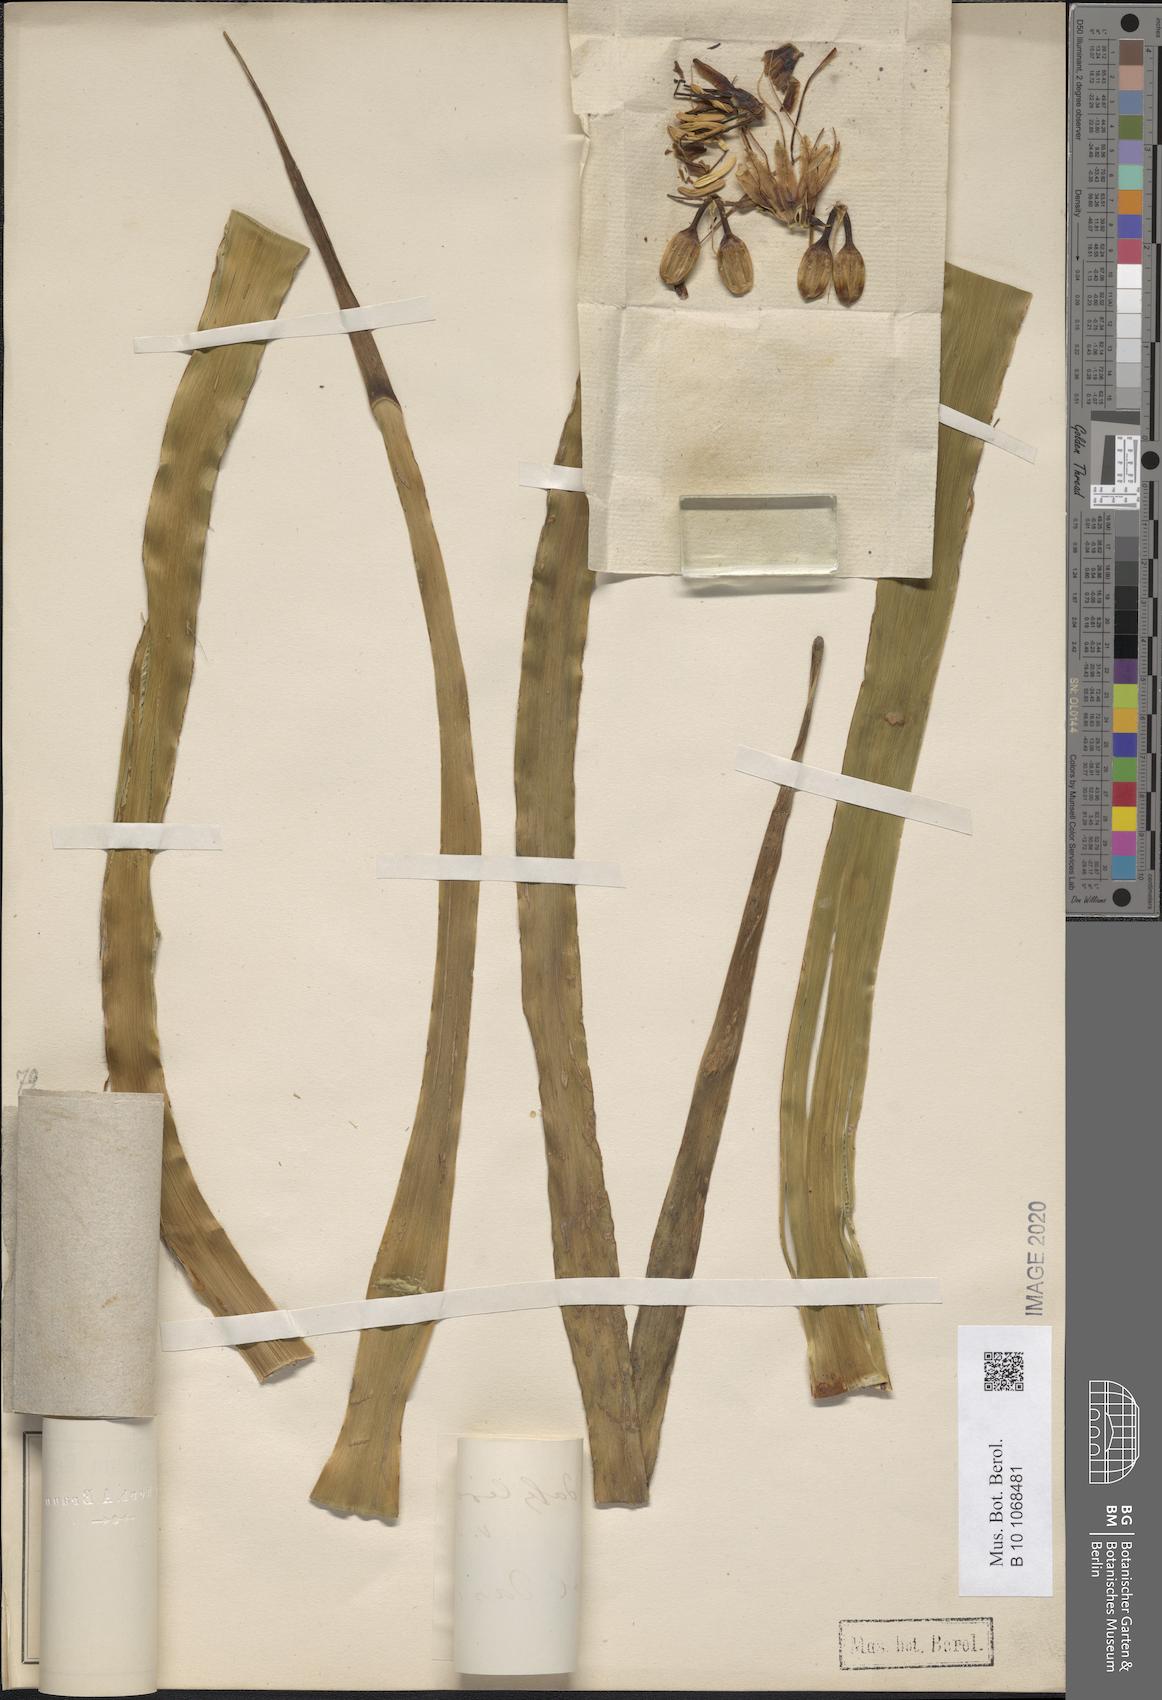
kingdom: Plantae
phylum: Tracheophyta
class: Liliopsida
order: Asparagales
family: Asparagaceae
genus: Agave
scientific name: Agave dealbata
